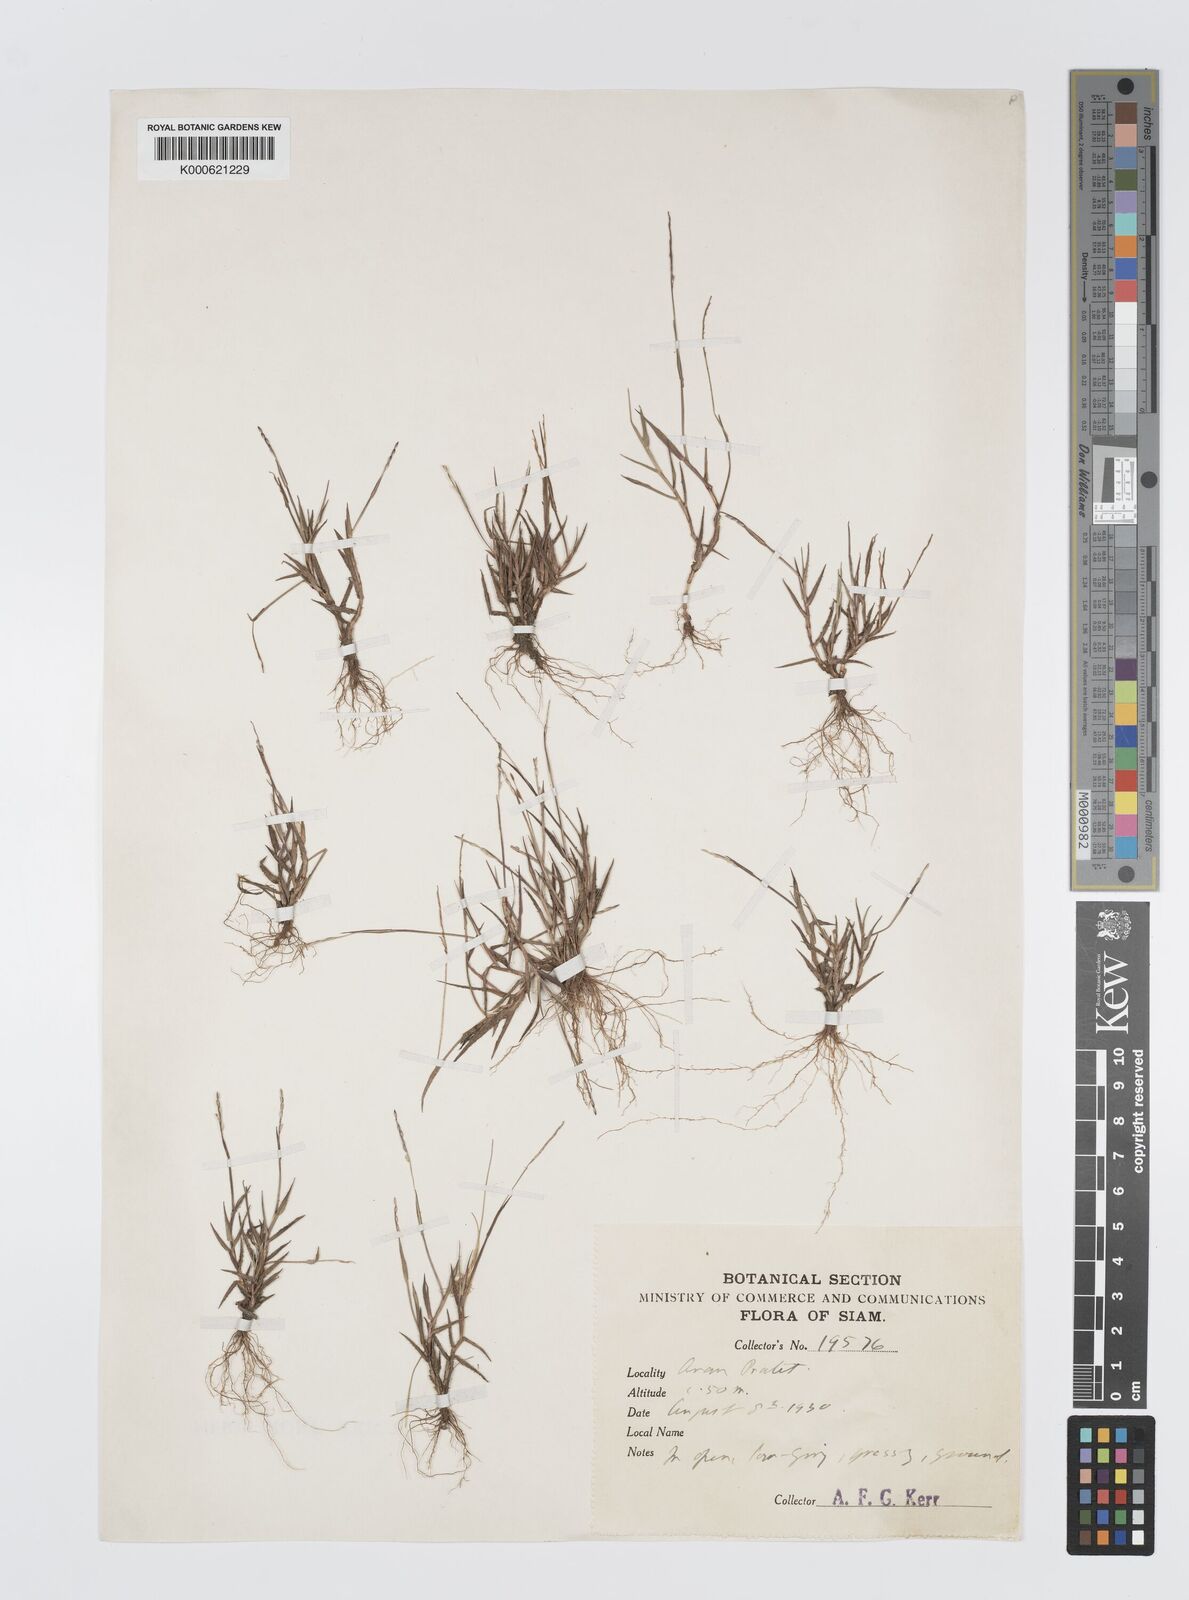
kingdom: Plantae
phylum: Tracheophyta
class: Liliopsida
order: Poales
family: Poaceae
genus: Digitaria
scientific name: Digitaria
